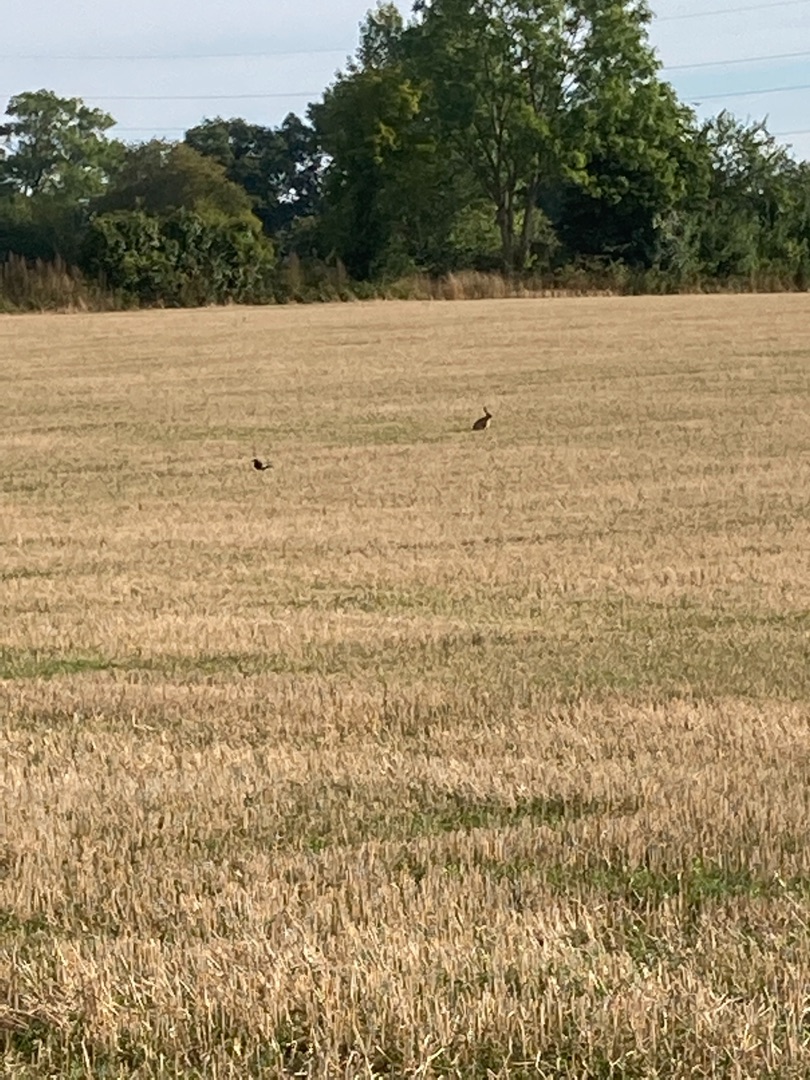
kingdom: Animalia
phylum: Chordata
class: Mammalia
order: Lagomorpha
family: Leporidae
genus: Lepus
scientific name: Lepus europaeus
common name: Hare
